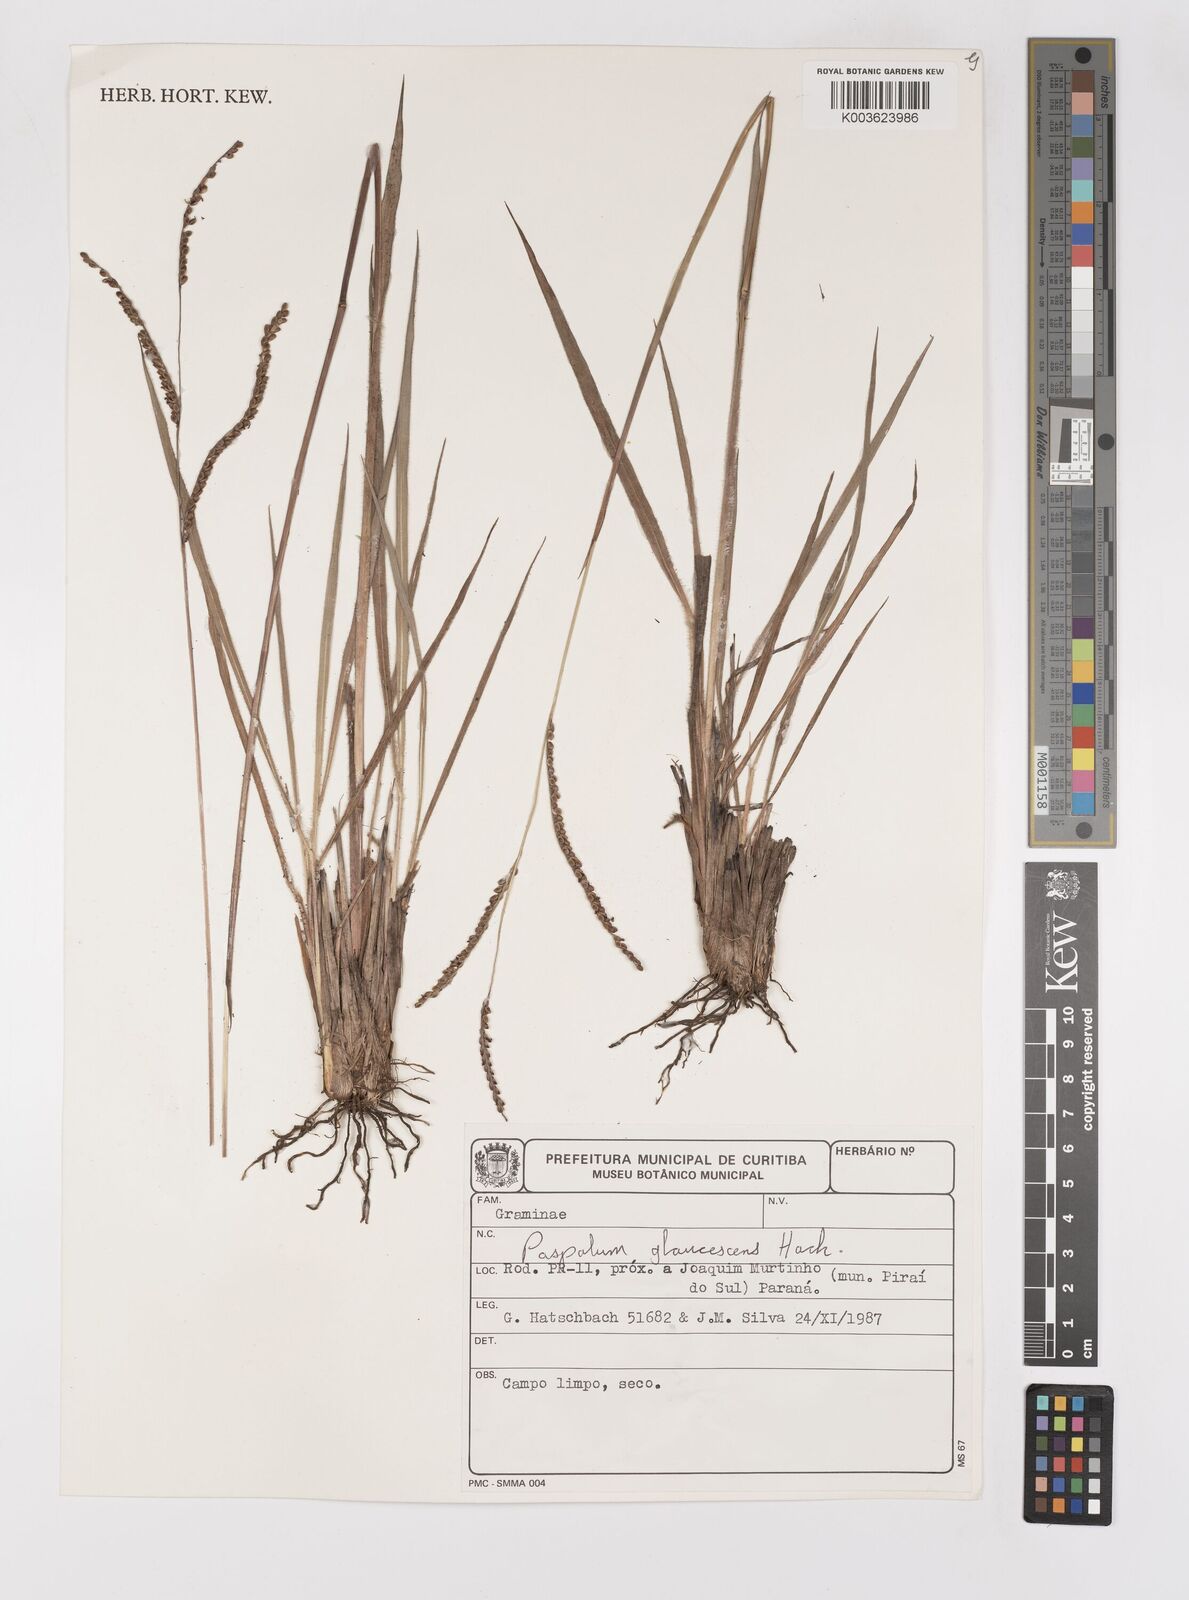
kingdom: Plantae
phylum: Tracheophyta
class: Liliopsida
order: Poales
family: Poaceae
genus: Paspalum
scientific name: Paspalum glaucescens
